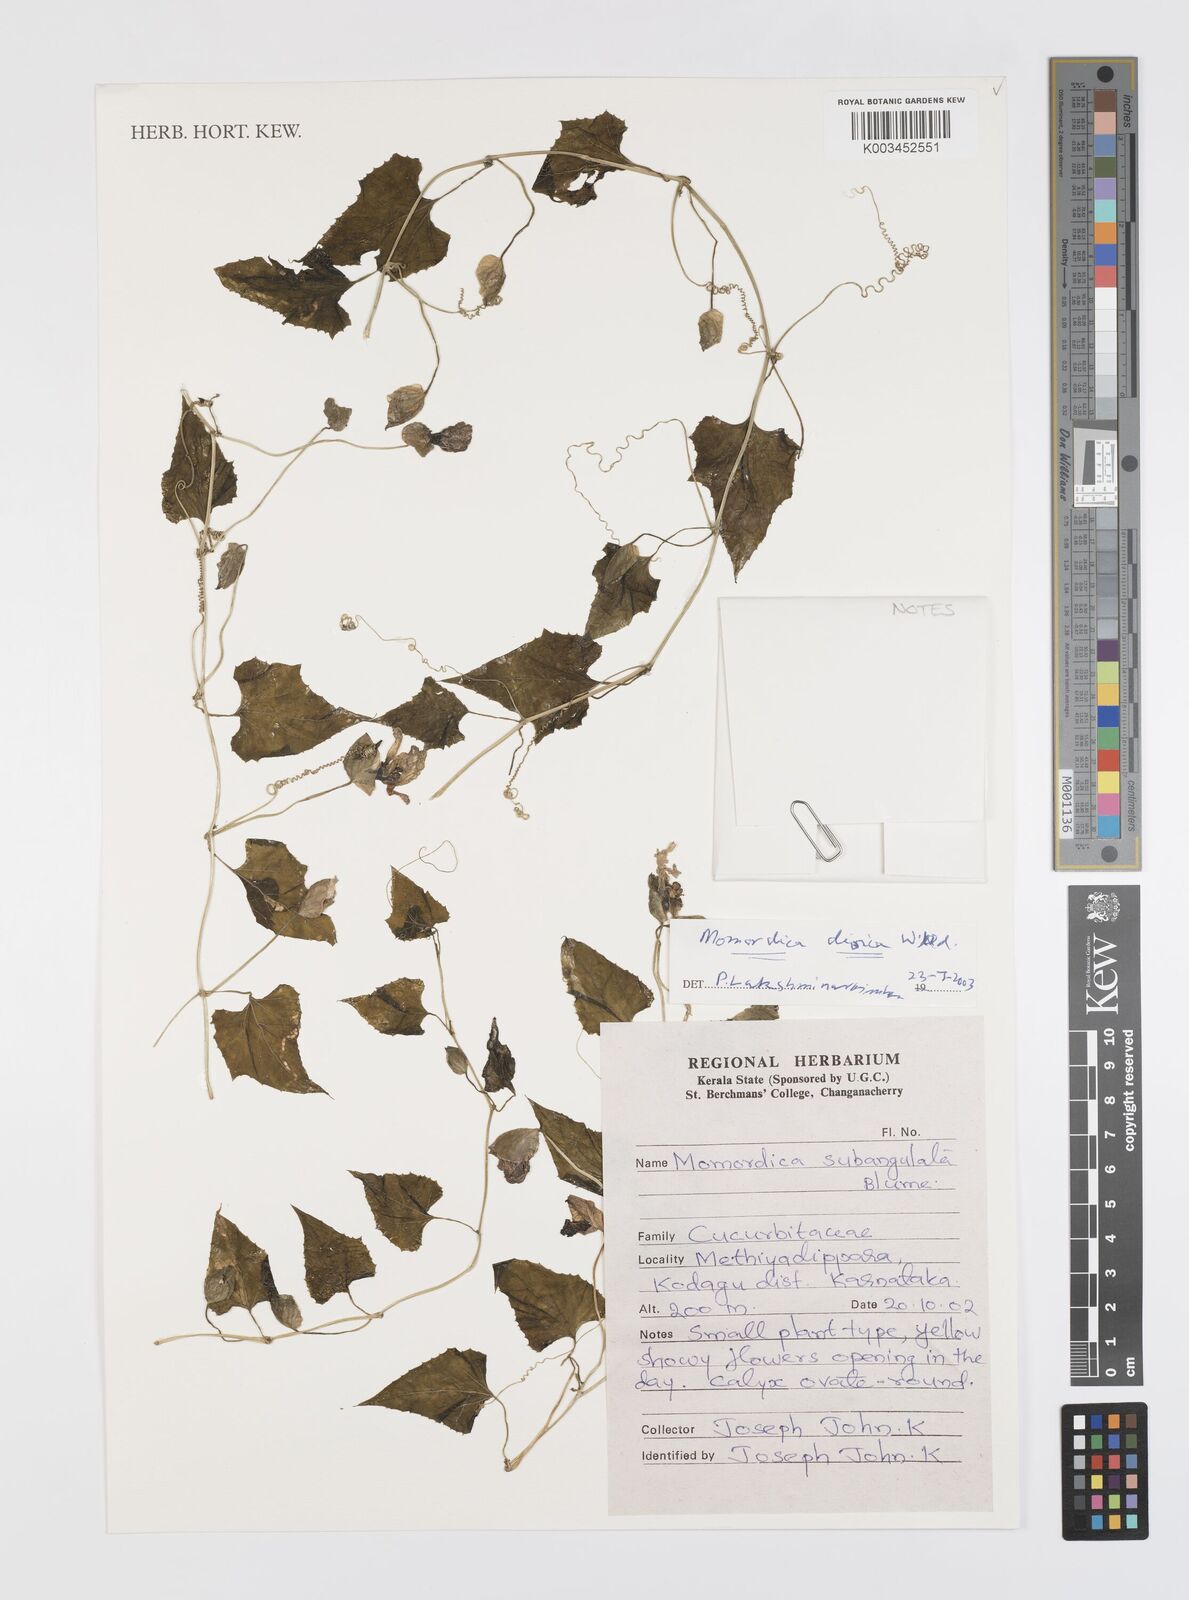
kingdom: Plantae
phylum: Tracheophyta
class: Magnoliopsida
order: Cucurbitales
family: Cucurbitaceae
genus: Momordica
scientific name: Momordica dioica
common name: Spine gourd
